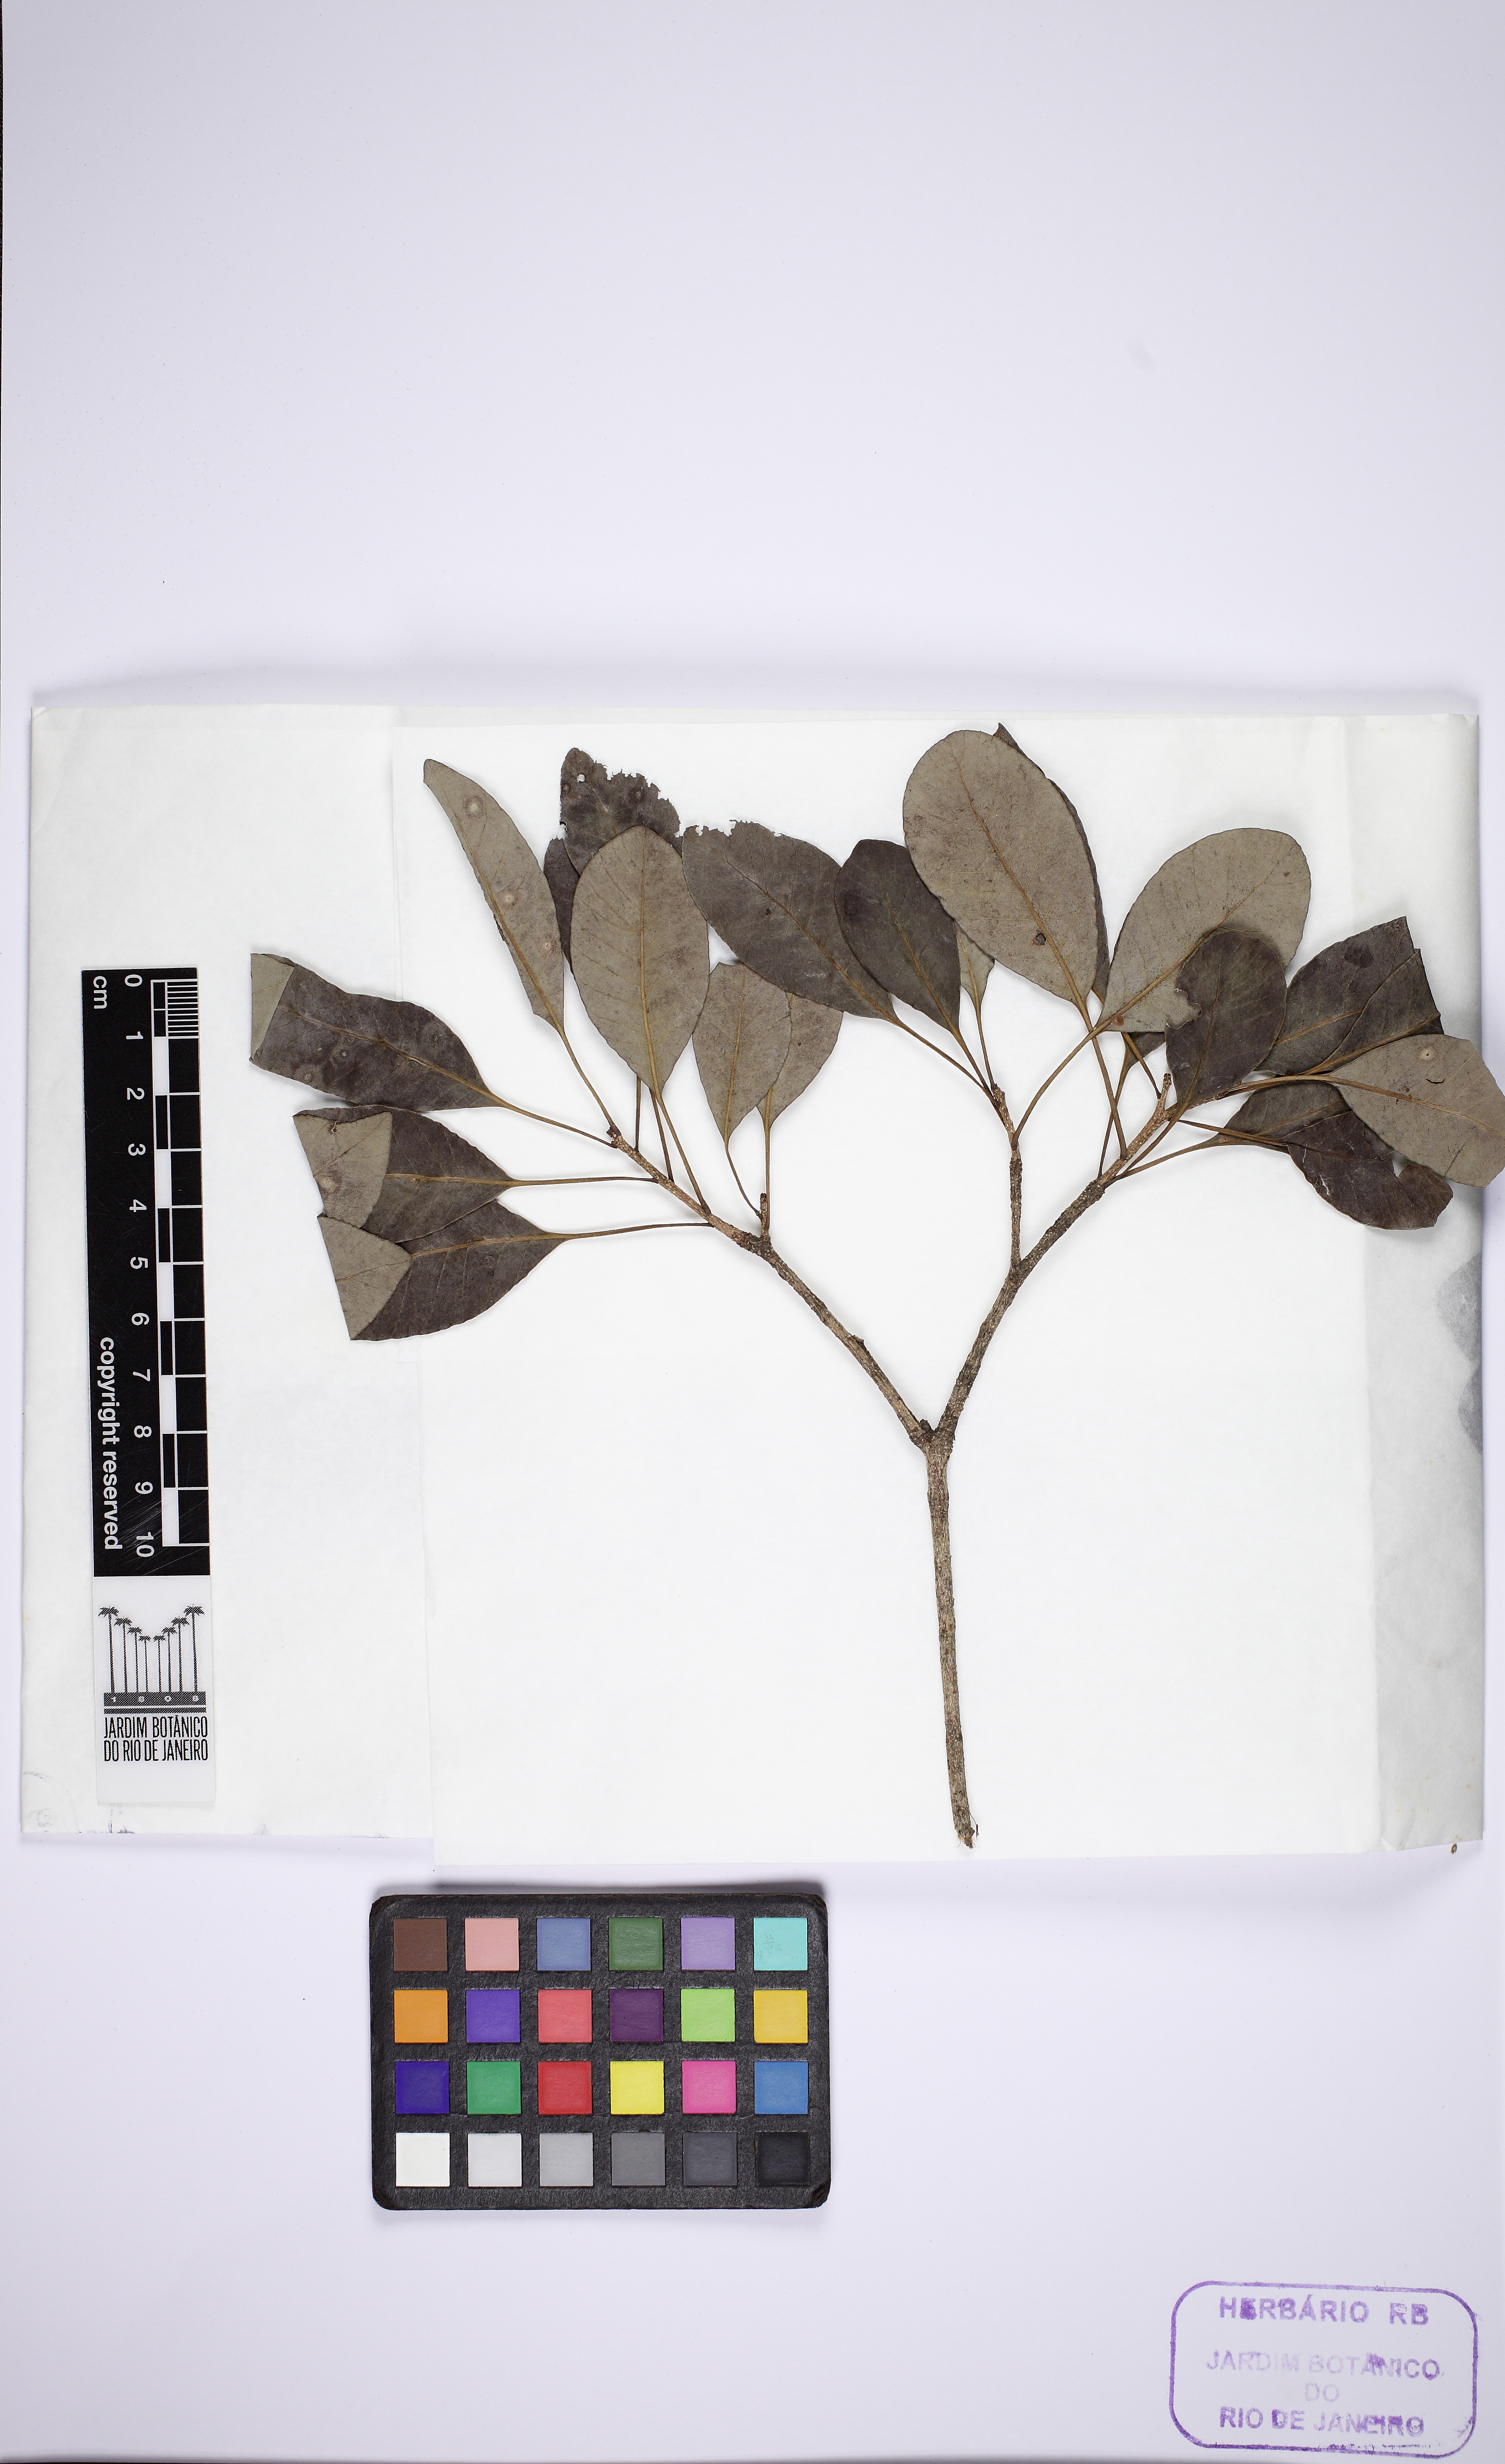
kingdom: Plantae
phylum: Tracheophyta
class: Magnoliopsida
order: Gentianales
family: Apocynaceae
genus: Aspidosperma
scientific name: Aspidosperma pyricollum
